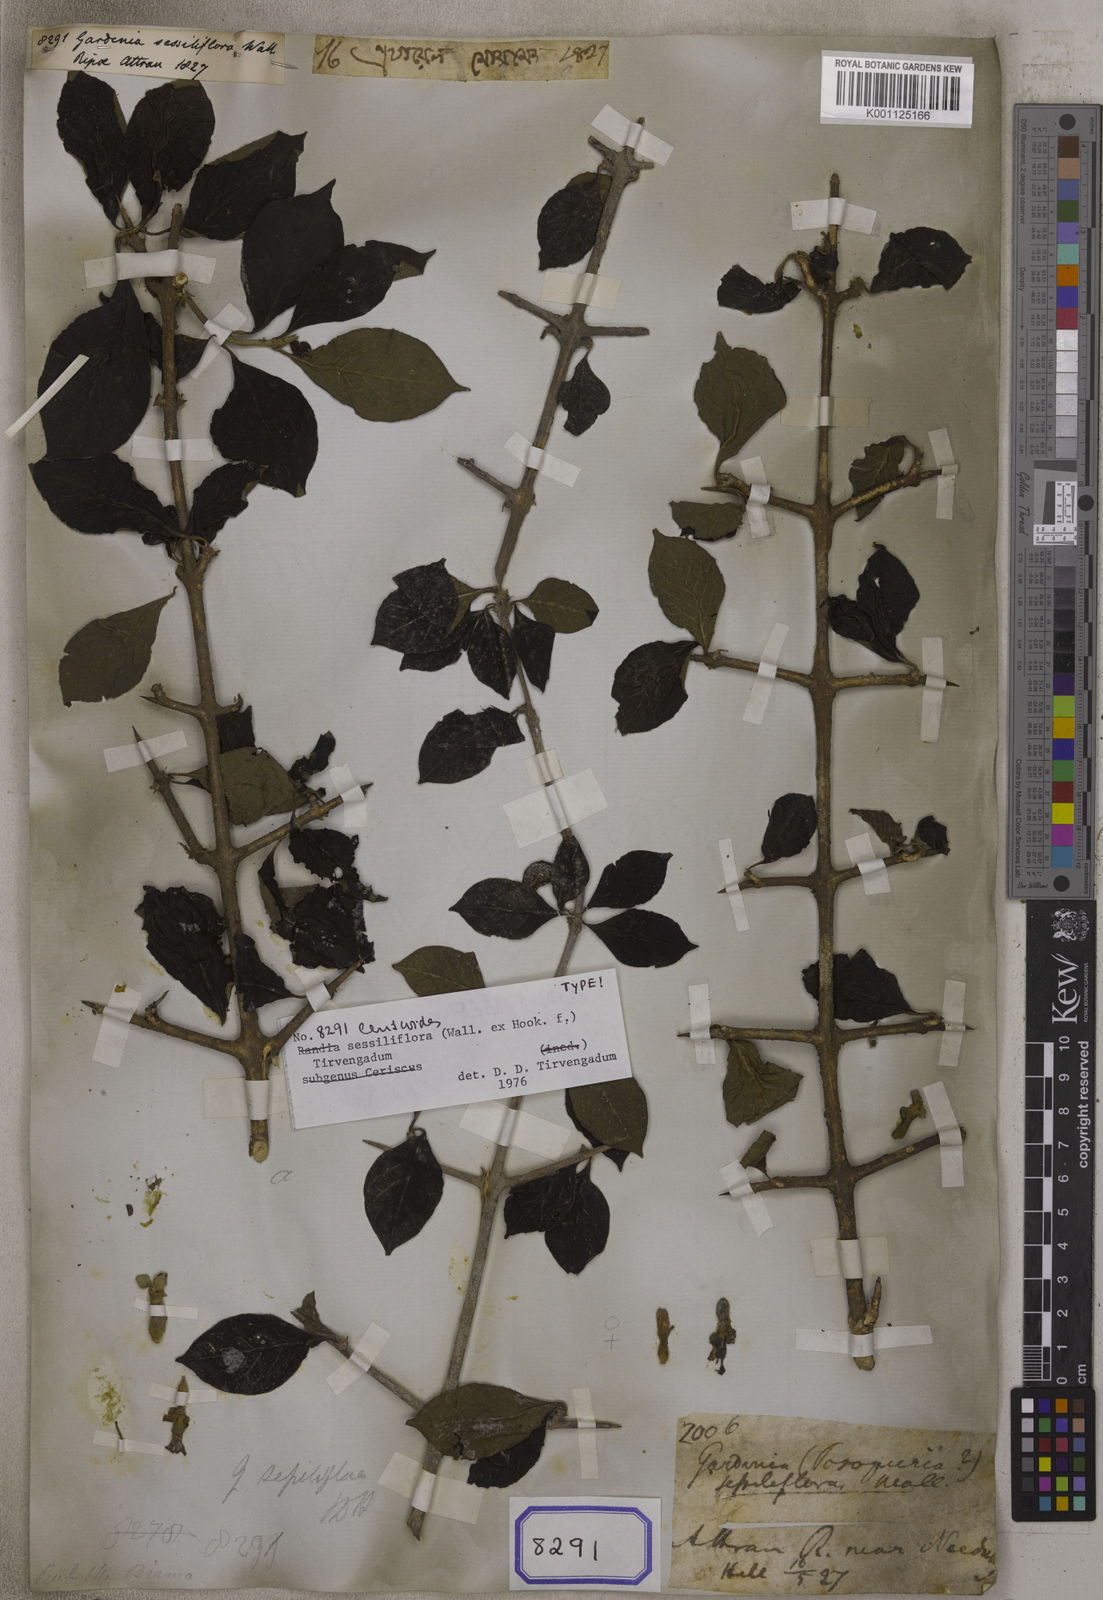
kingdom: Plantae
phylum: Tracheophyta
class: Magnoliopsida
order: Gentianales
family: Rubiaceae
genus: Gardenia
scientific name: Gardenia
